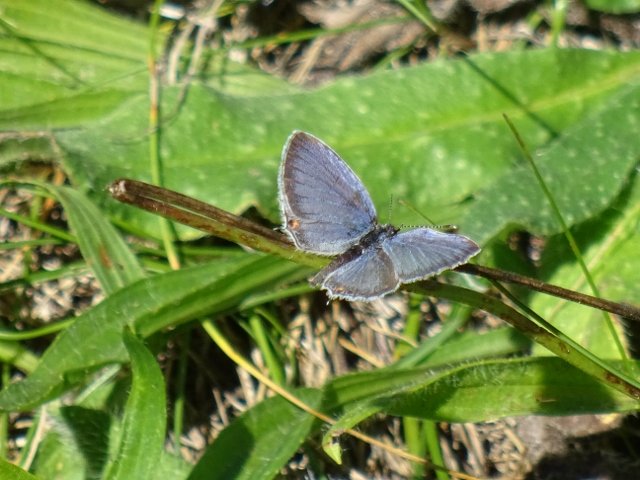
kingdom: Animalia
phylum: Arthropoda
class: Insecta
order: Lepidoptera
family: Lycaenidae
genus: Elkalyce
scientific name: Elkalyce comyntas
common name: Eastern Tailed-Blue
